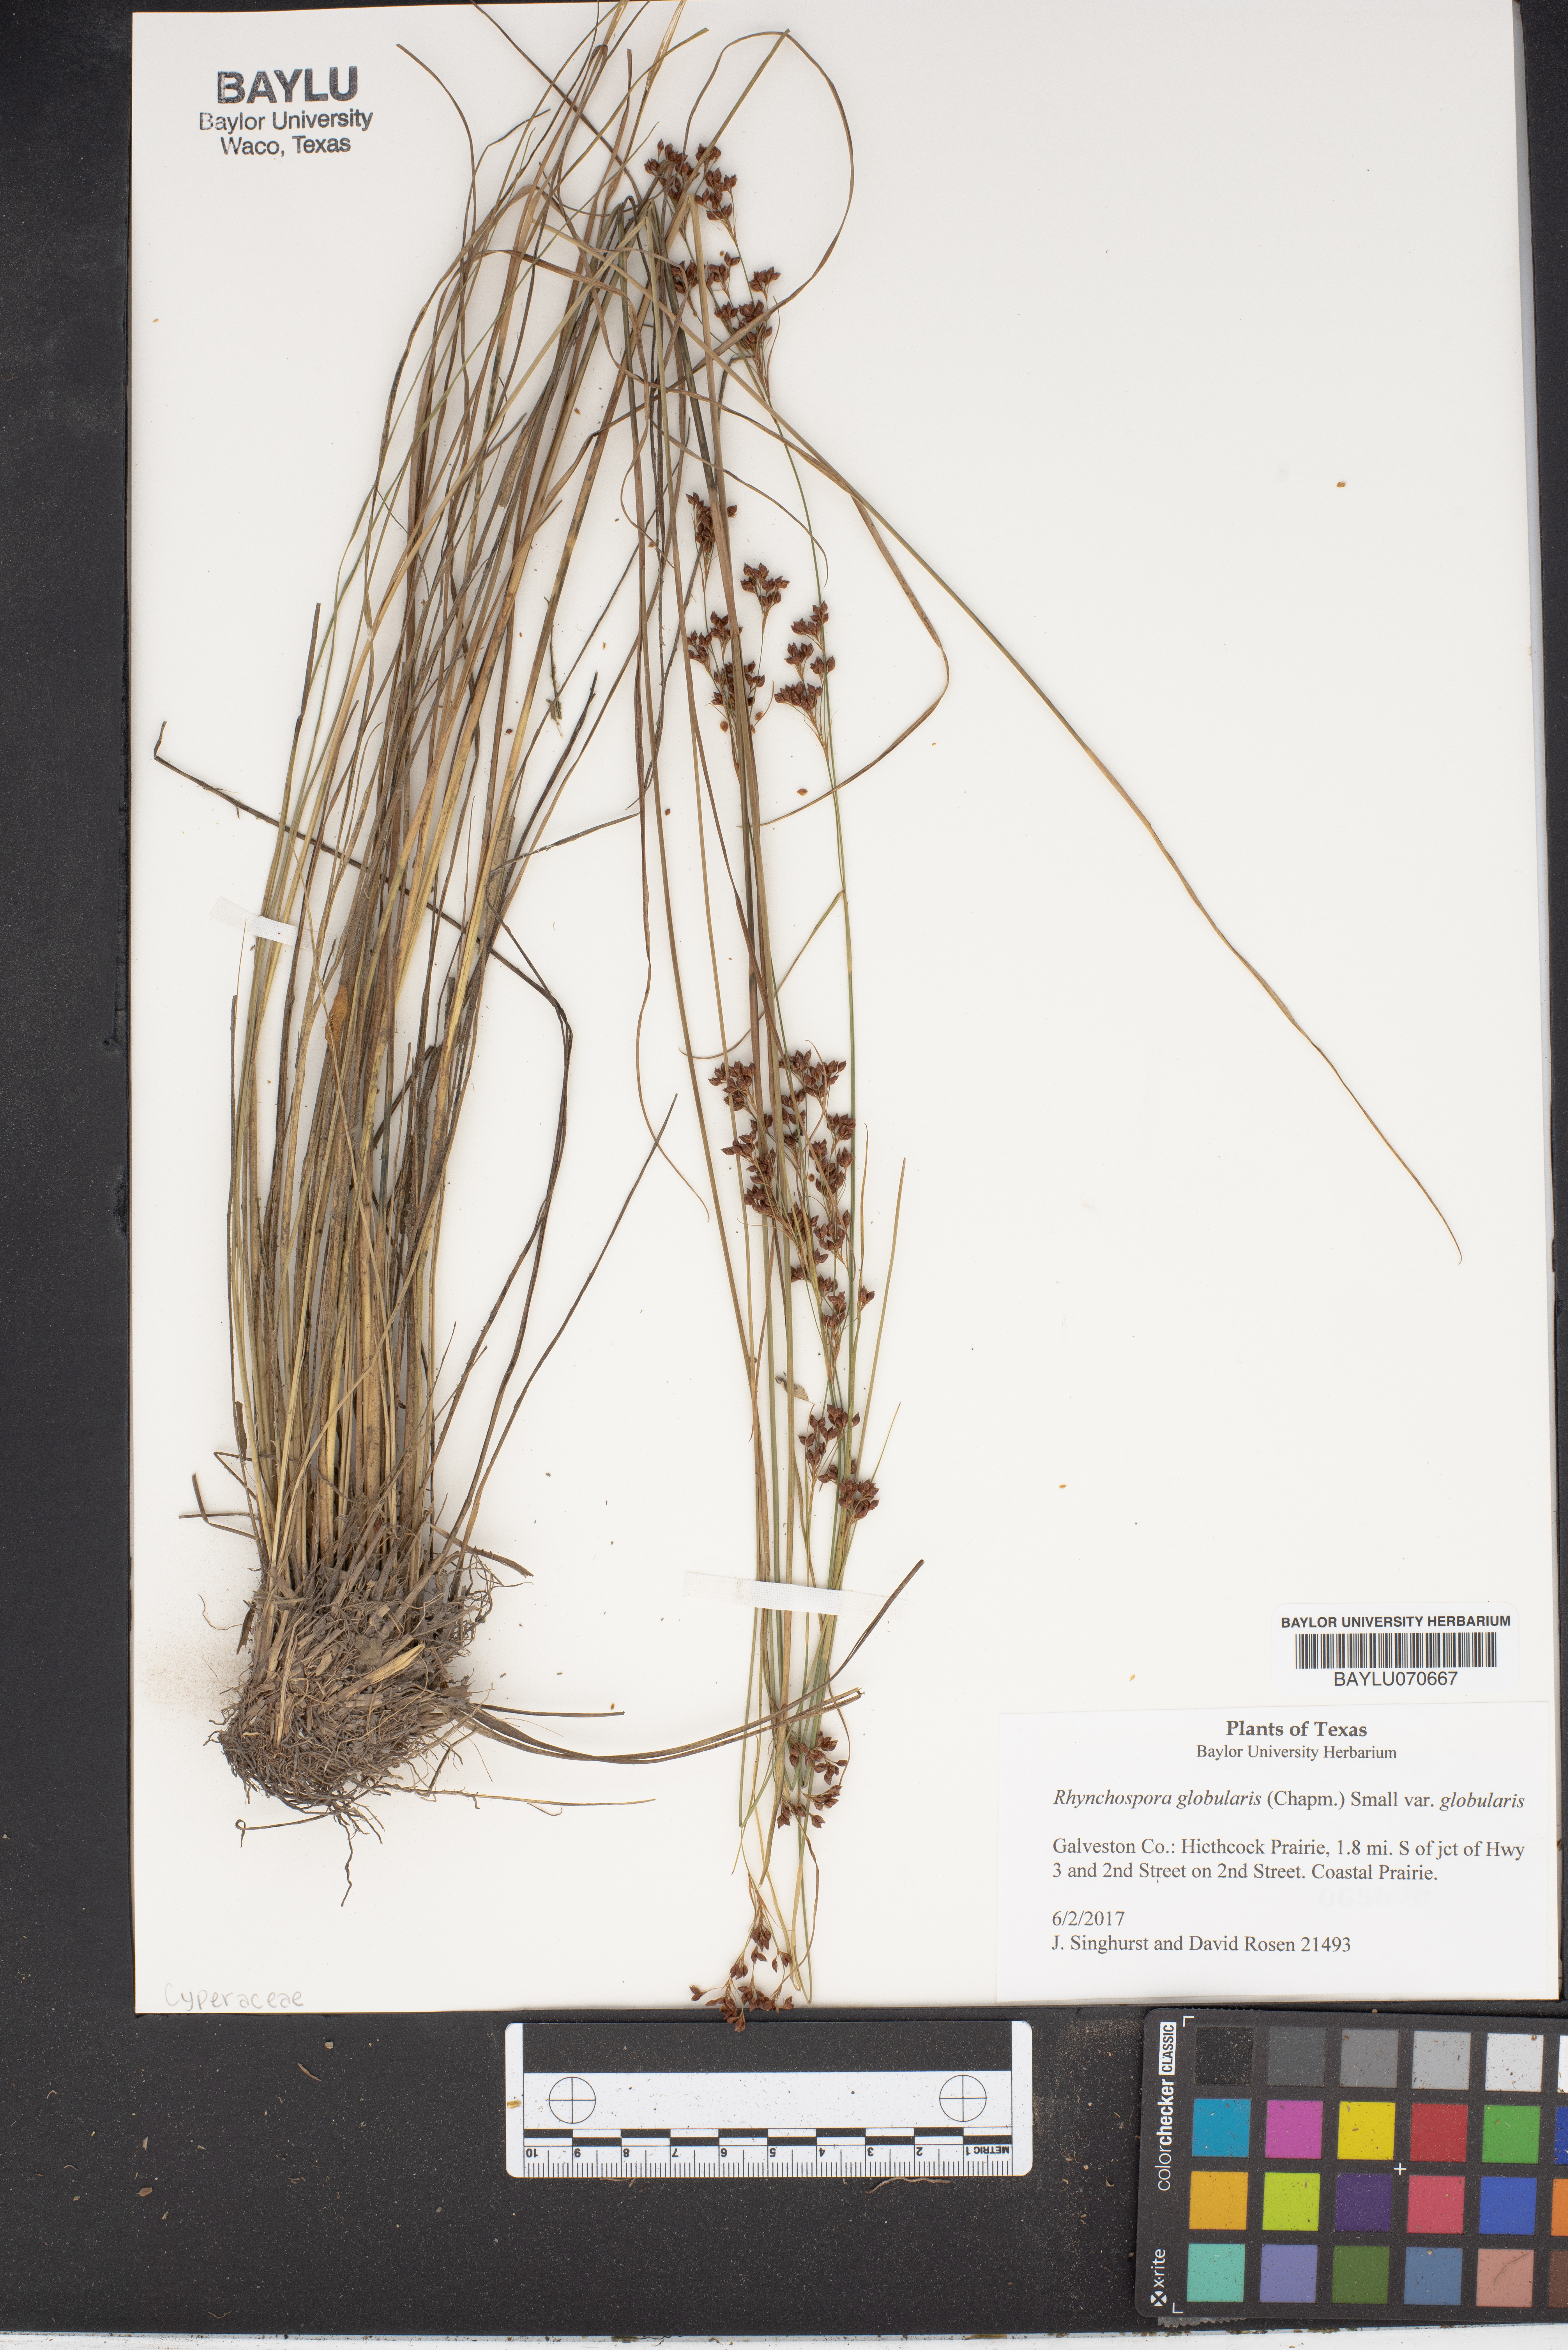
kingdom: Plantae
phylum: Tracheophyta
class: Liliopsida
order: Poales
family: Cyperaceae
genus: Rhynchospora
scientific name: Rhynchospora globularis
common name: Globe beaksedge
